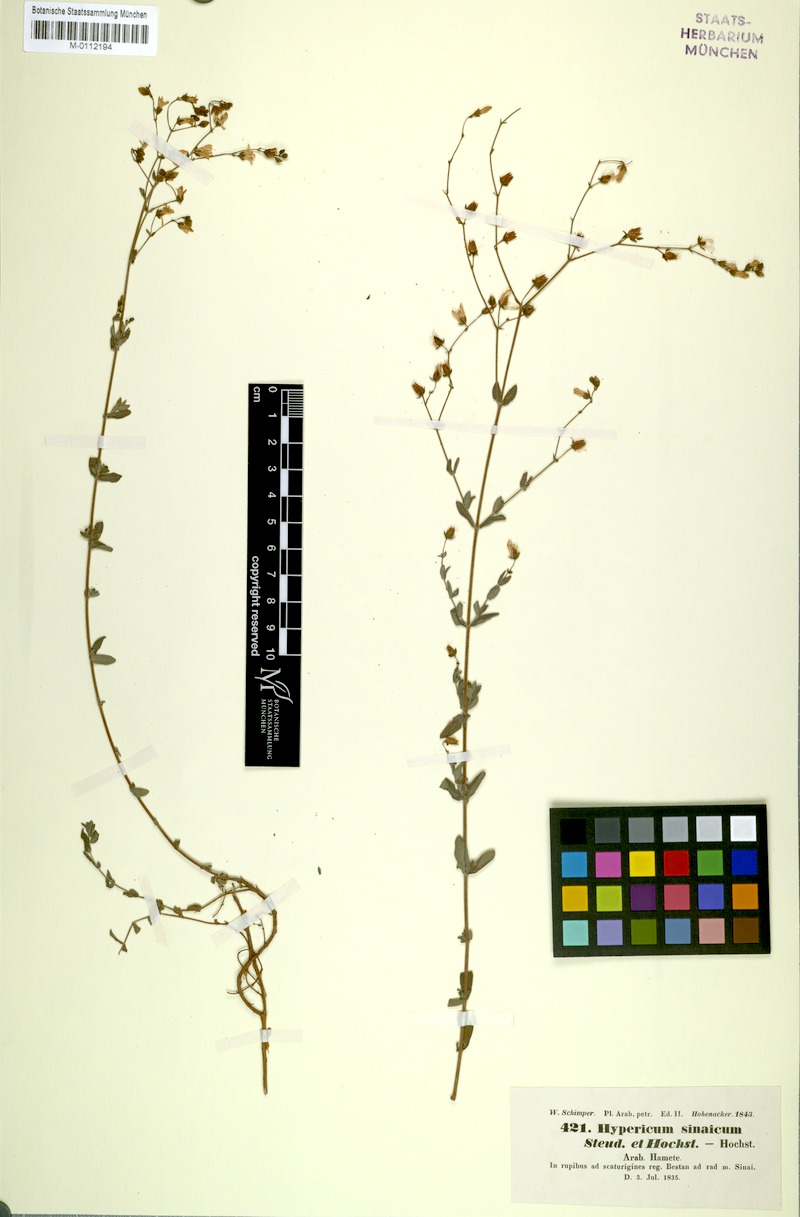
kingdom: Plantae
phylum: Tracheophyta
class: Magnoliopsida
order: Malpighiales
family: Hypericaceae
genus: Hypericum
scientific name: Hypericum sinaicum
